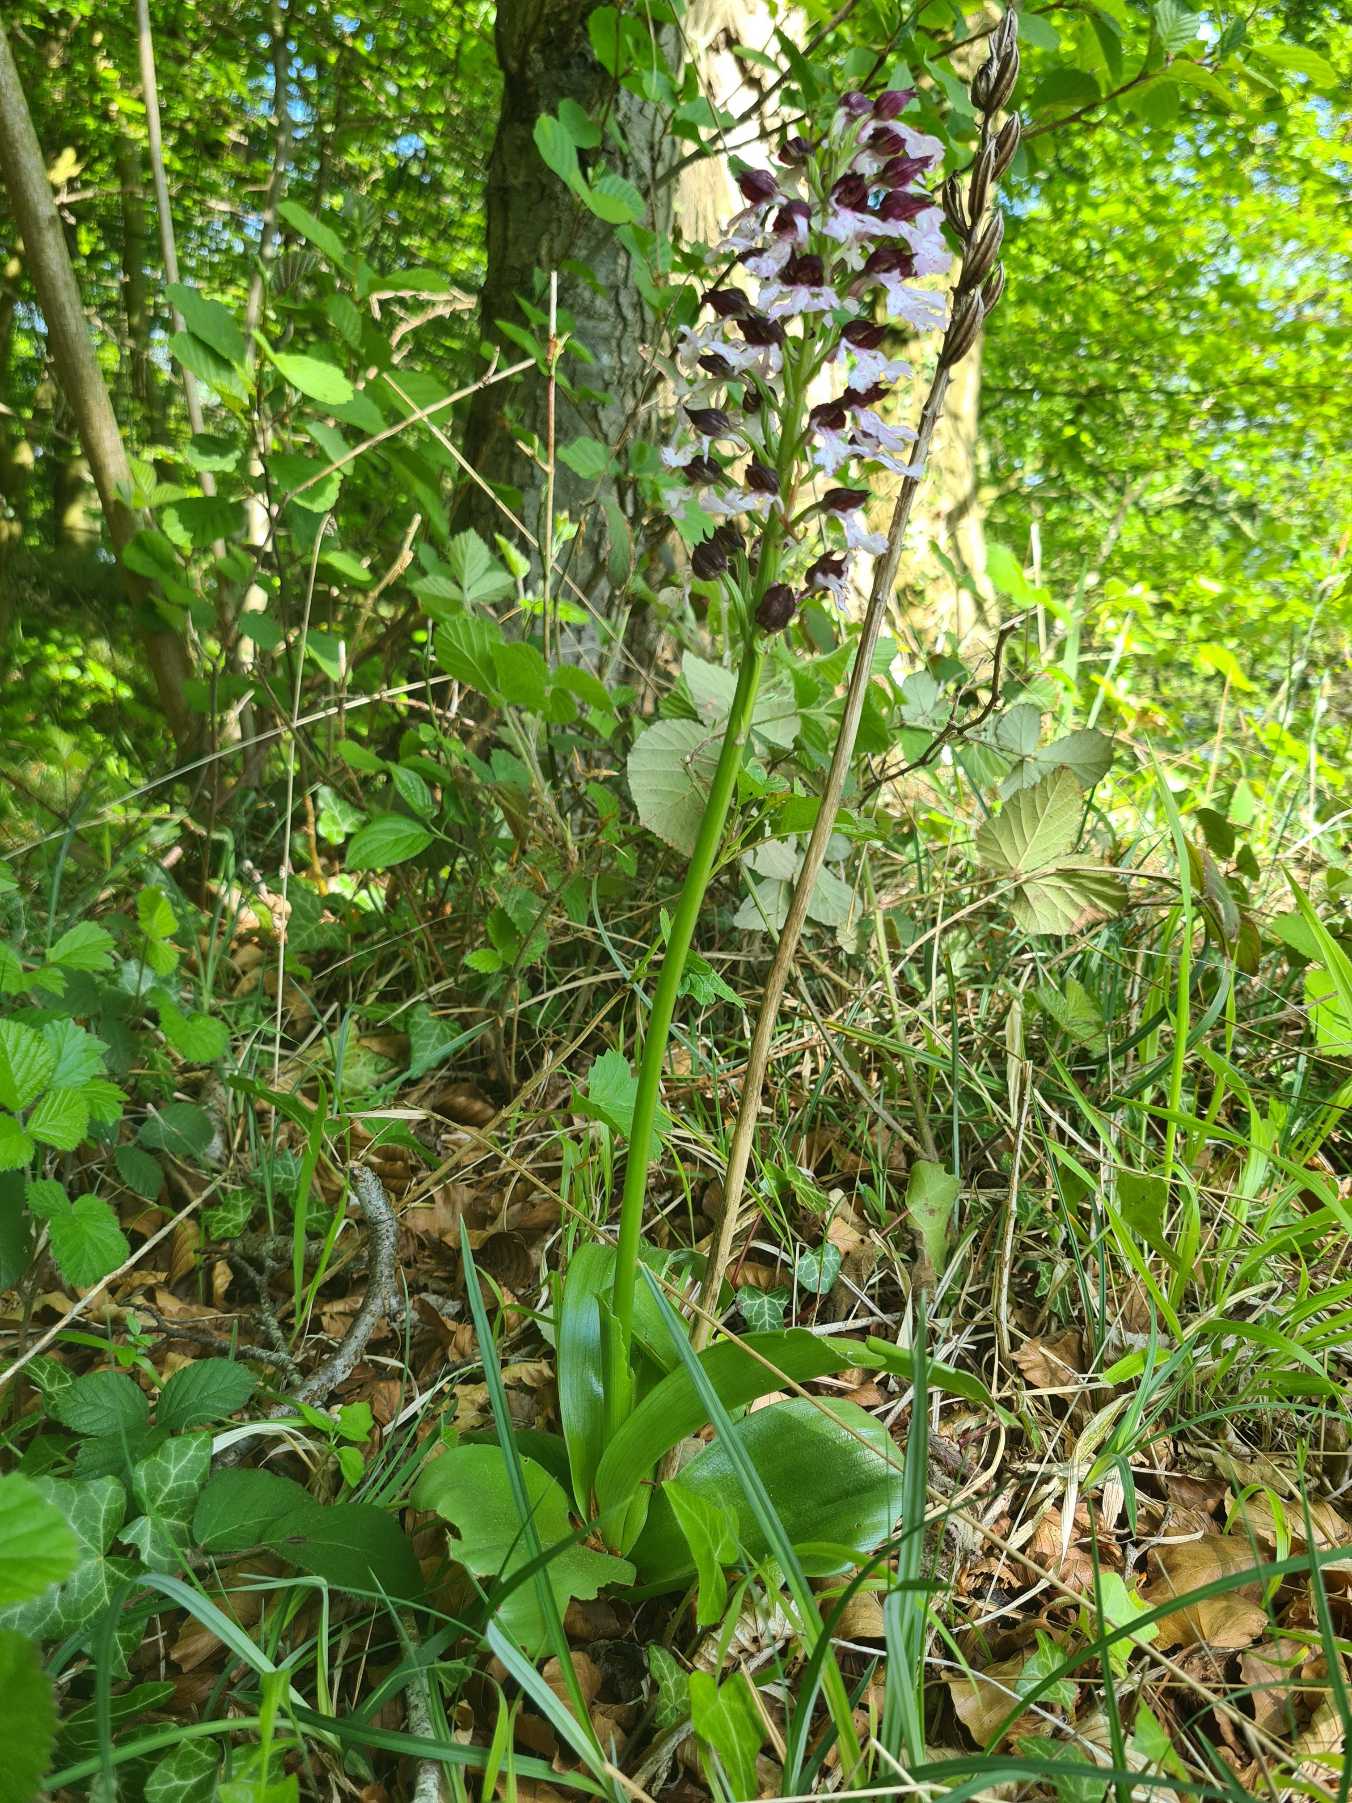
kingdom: Plantae
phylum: Tracheophyta
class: Liliopsida
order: Asparagales
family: Orchidaceae
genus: Orchis
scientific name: Orchis purpurea
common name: Stor gøgeurt
